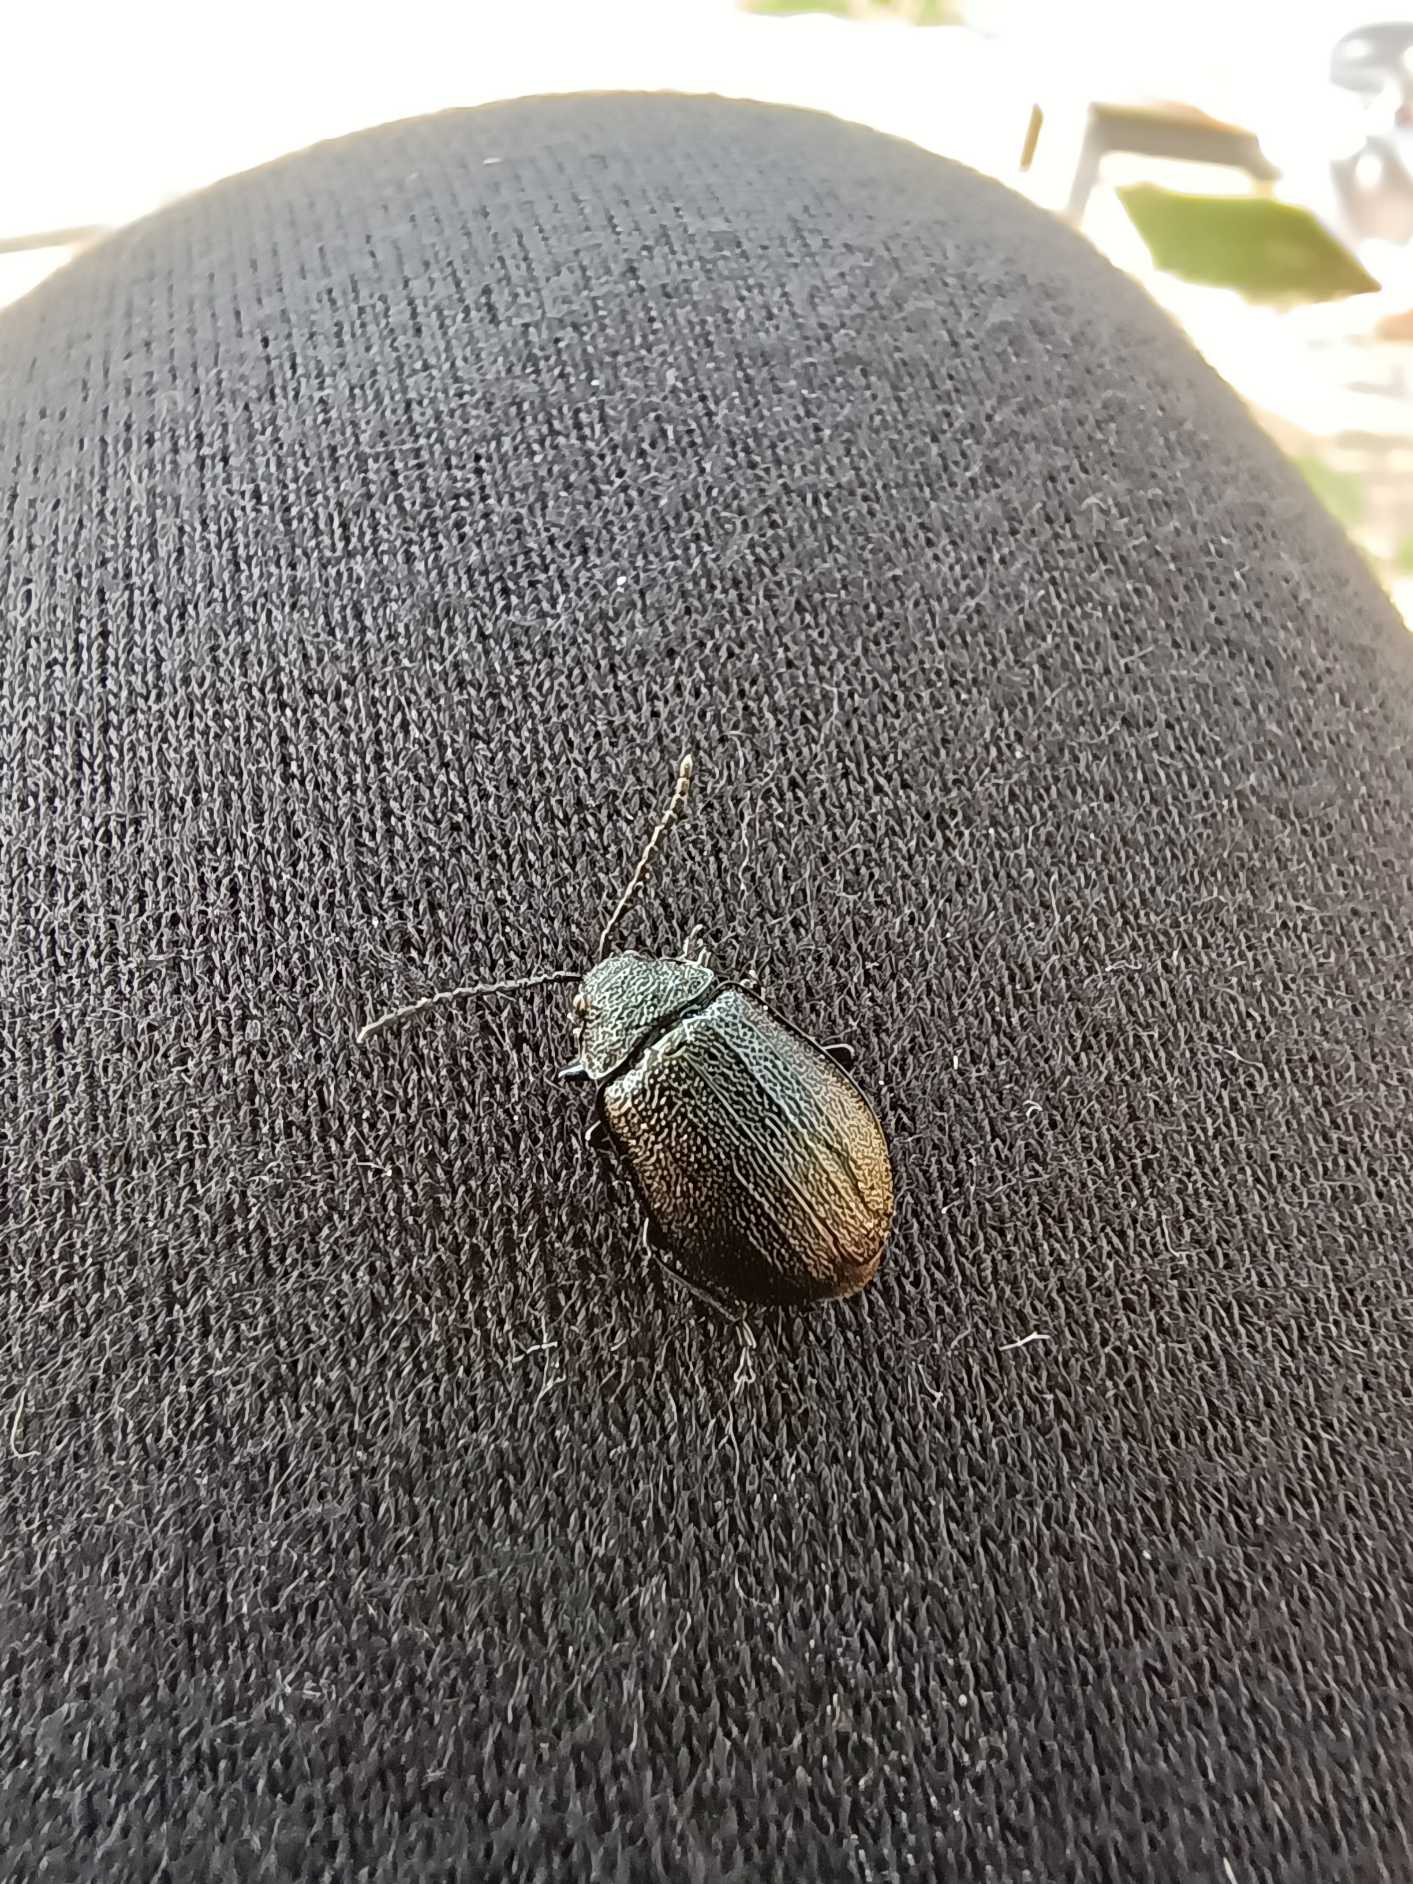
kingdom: Animalia
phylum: Arthropoda
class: Insecta
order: Coleoptera
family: Chrysomelidae
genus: Galeruca
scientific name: Galeruca tanaceti
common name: Rejnfanbladbille
